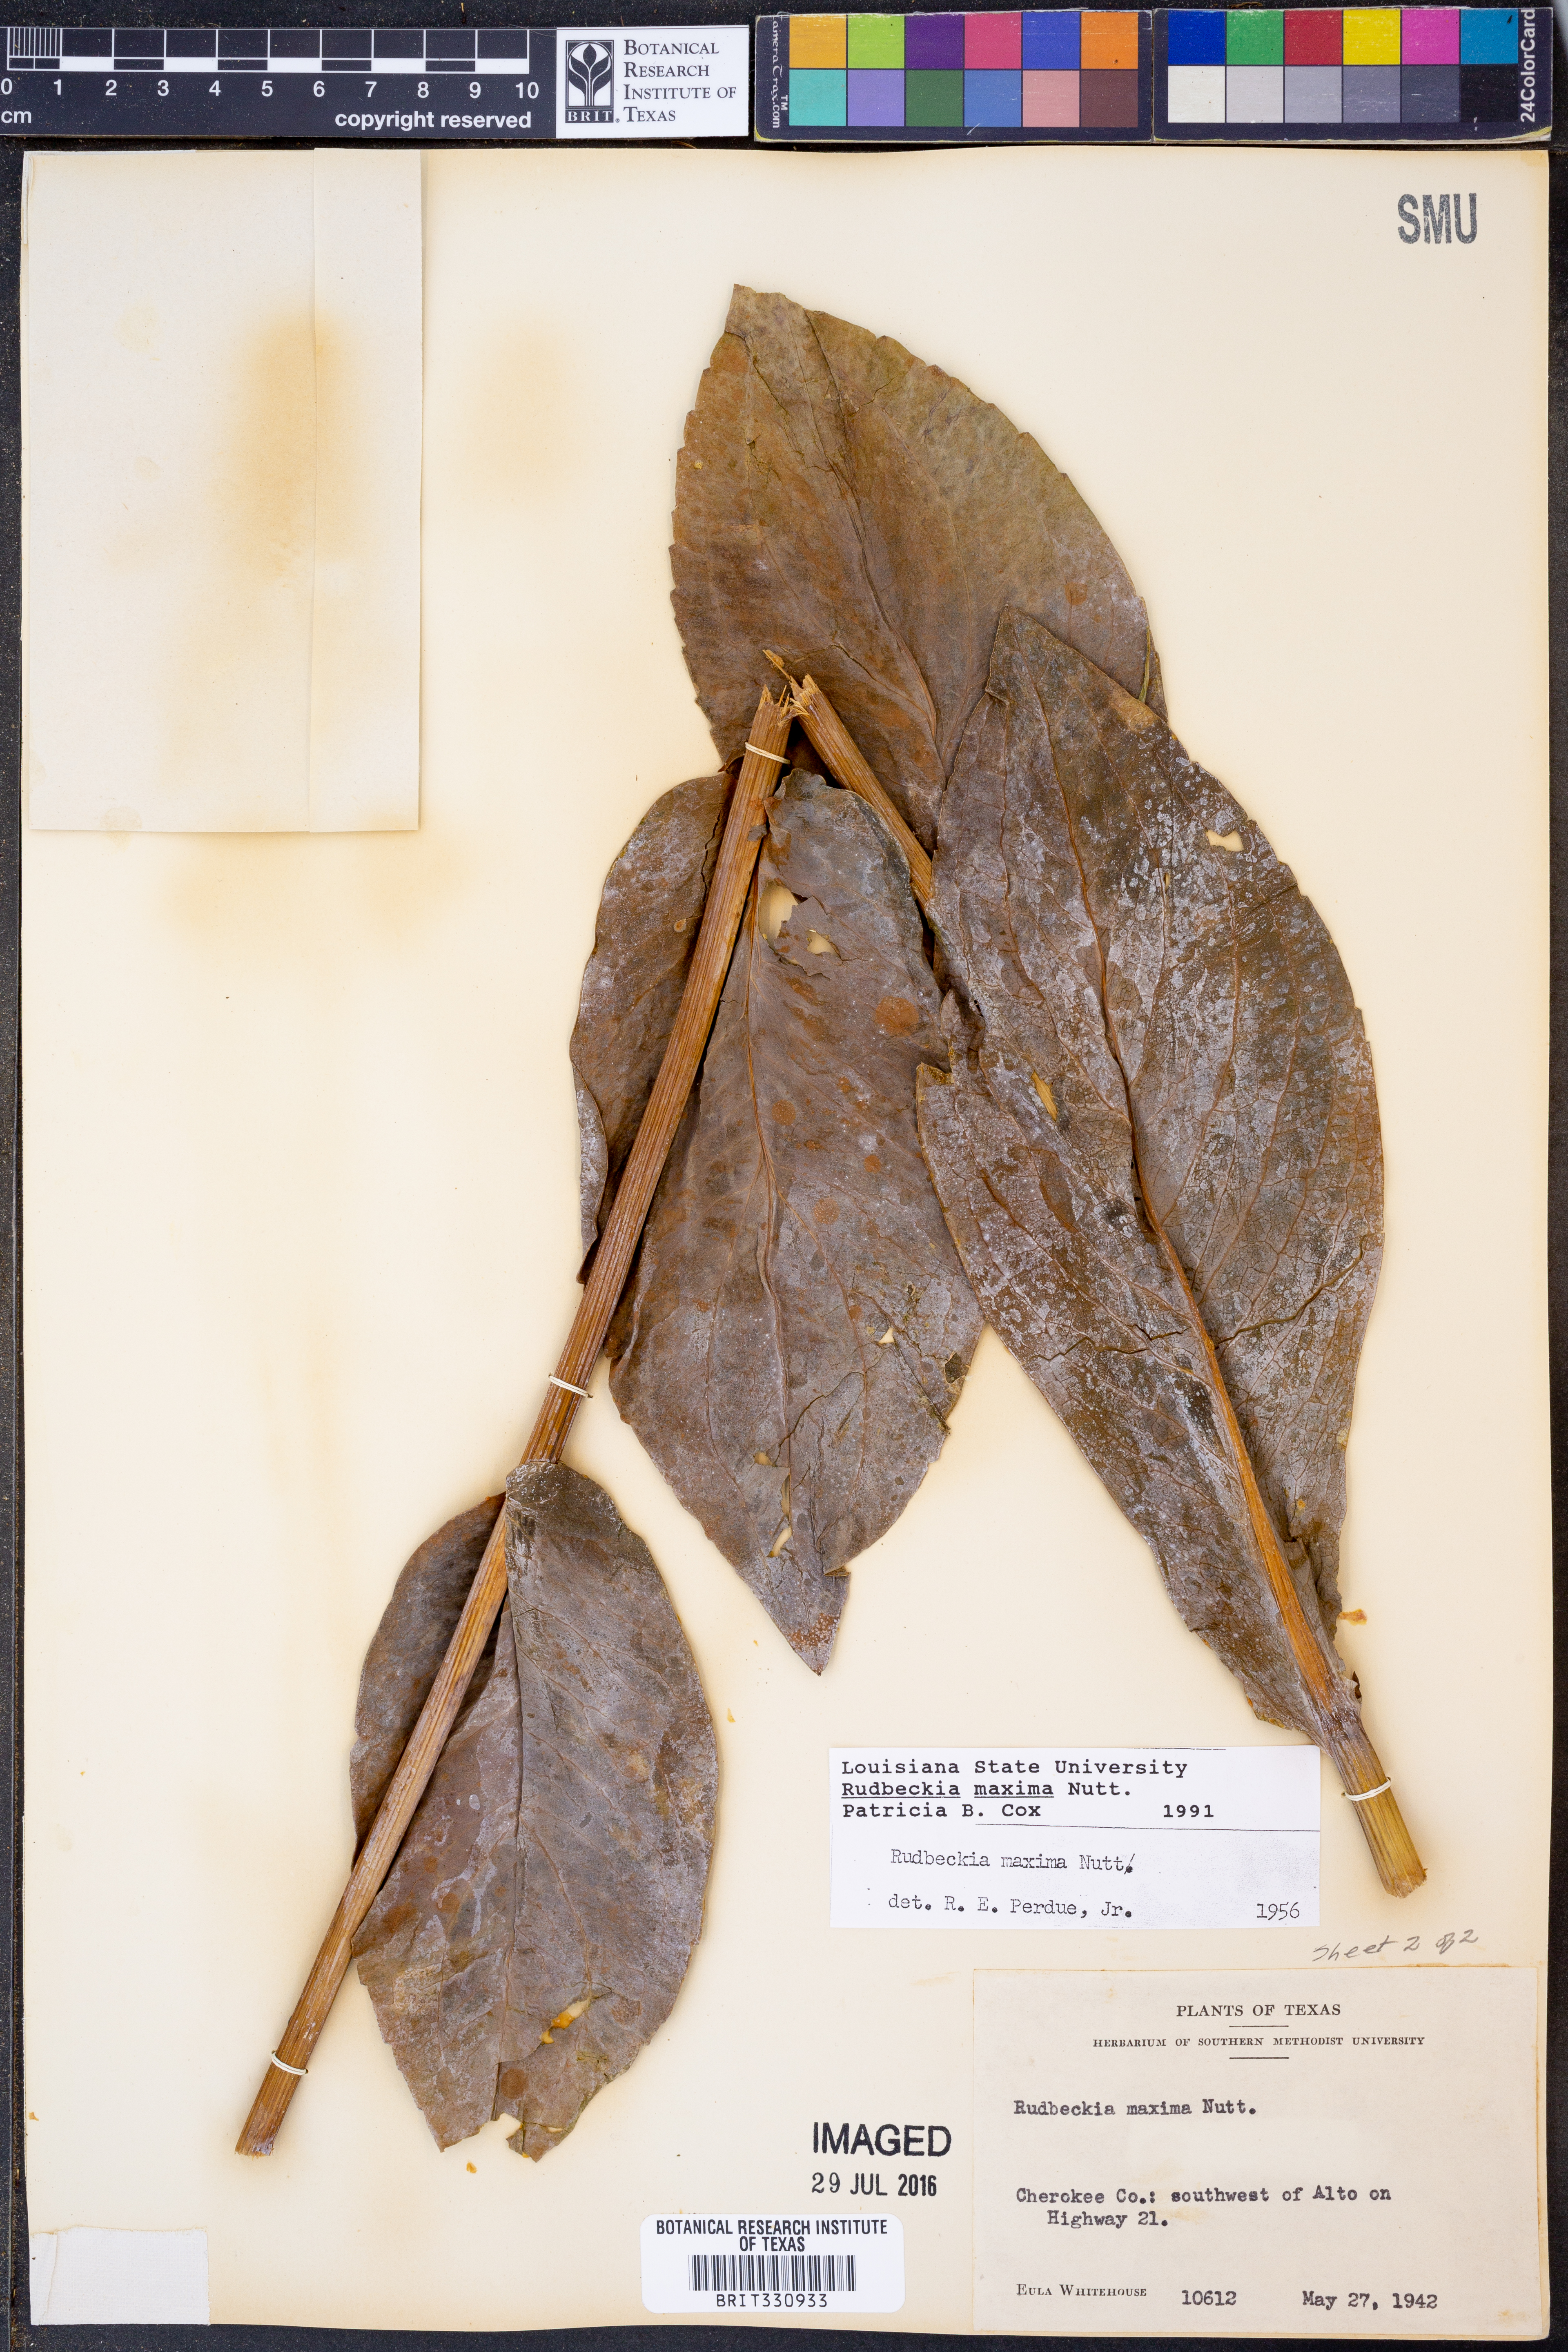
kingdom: Plantae
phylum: Tracheophyta
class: Magnoliopsida
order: Asterales
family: Asteraceae
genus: Rudbeckia
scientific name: Rudbeckia maxima
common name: Cabbage coneflower
